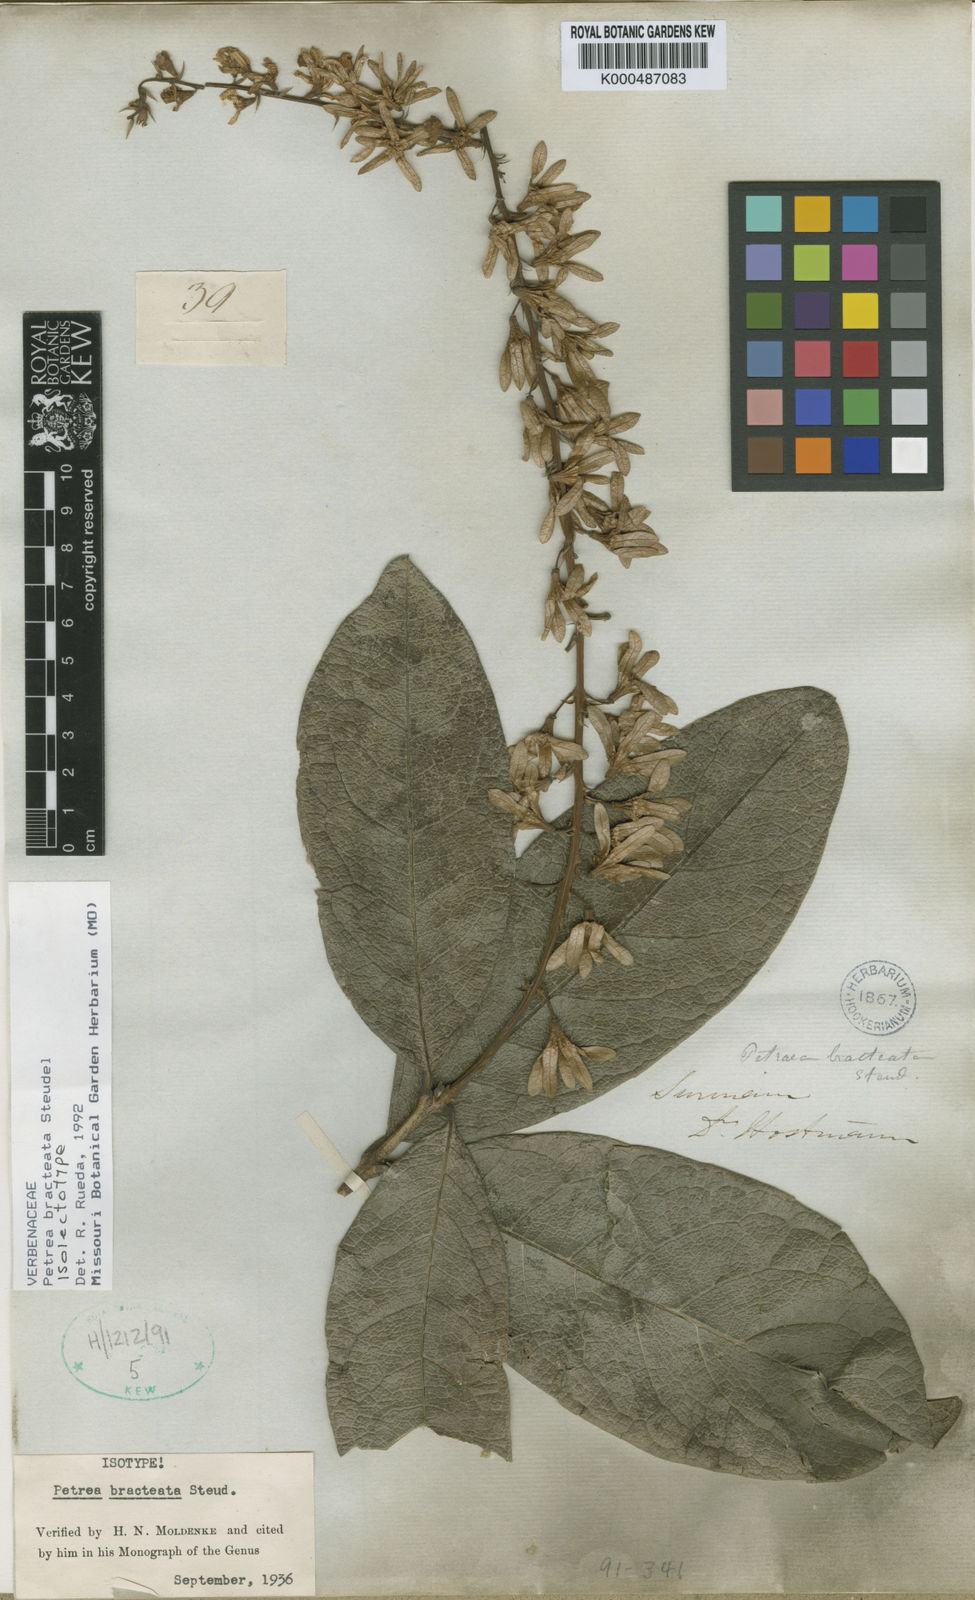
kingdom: Plantae
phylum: Tracheophyta
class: Magnoliopsida
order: Lamiales
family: Verbenaceae
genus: Petrea
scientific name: Petrea bracteata
